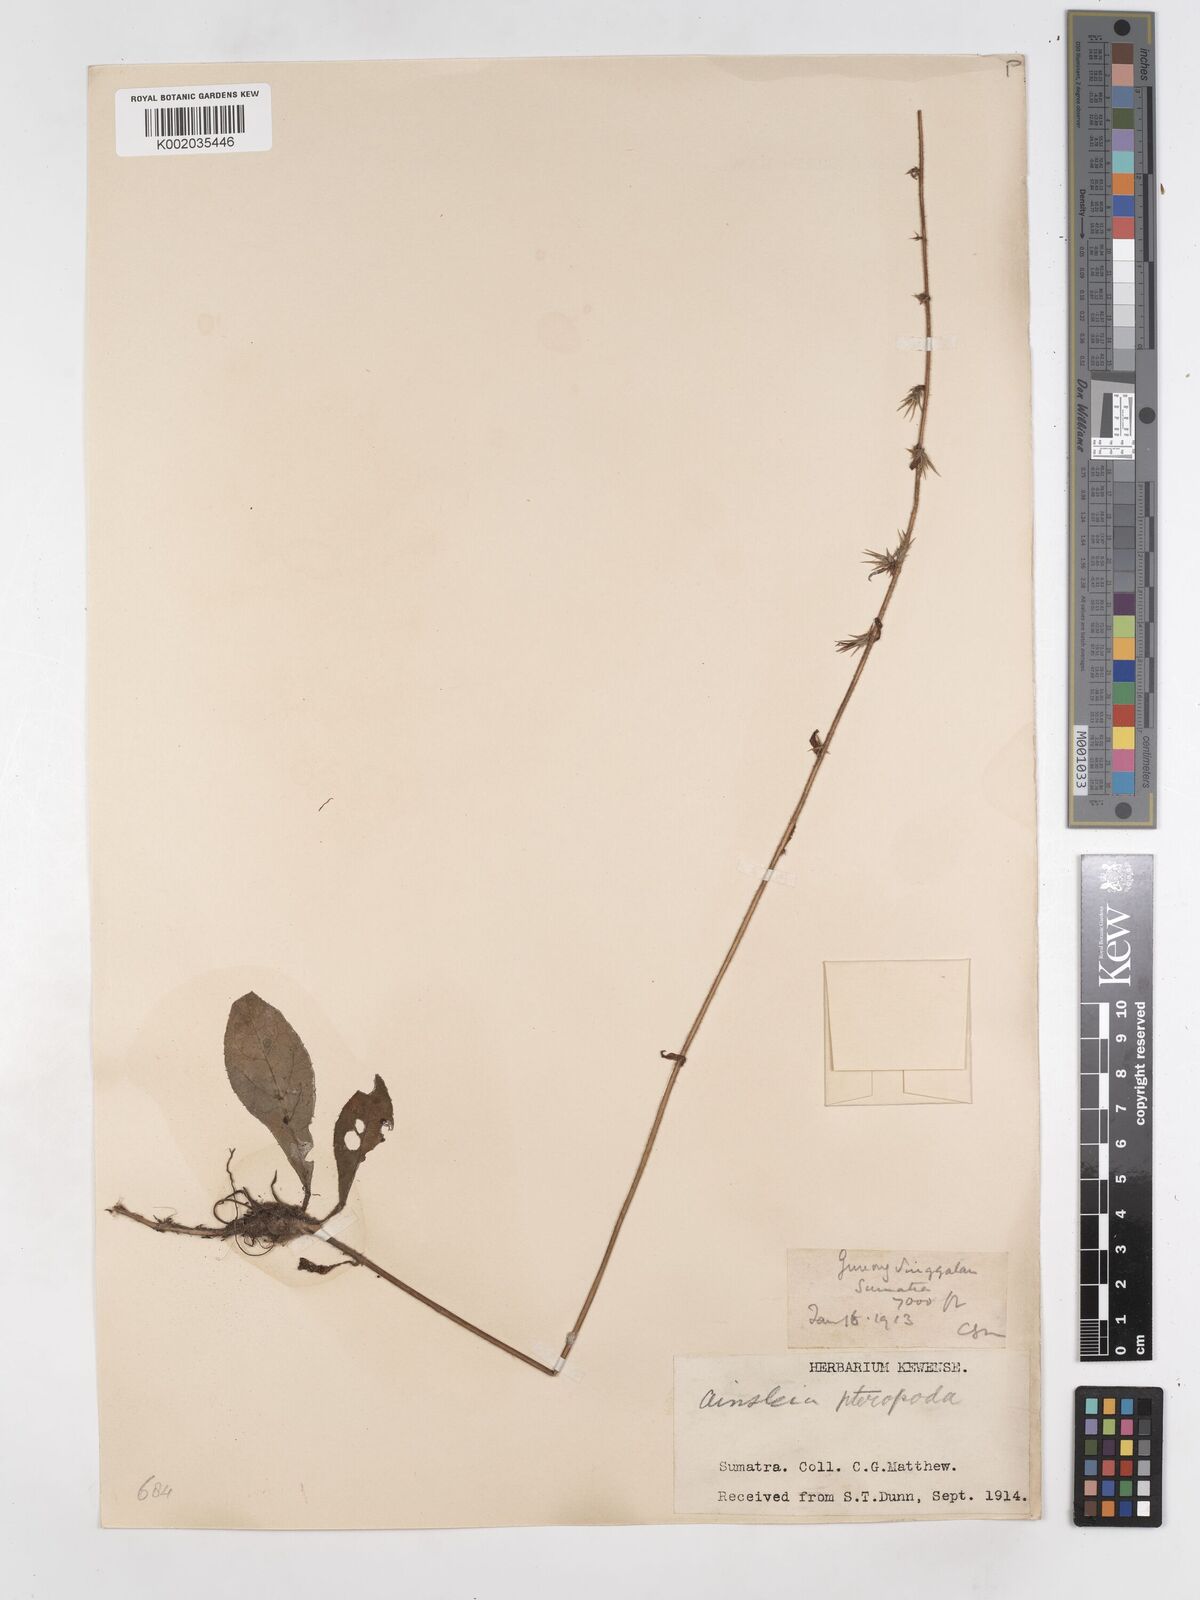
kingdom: Plantae
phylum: Tracheophyta
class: Magnoliopsida
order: Asterales
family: Asteraceae
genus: Ainsliaea
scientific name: Ainsliaea latifolia
